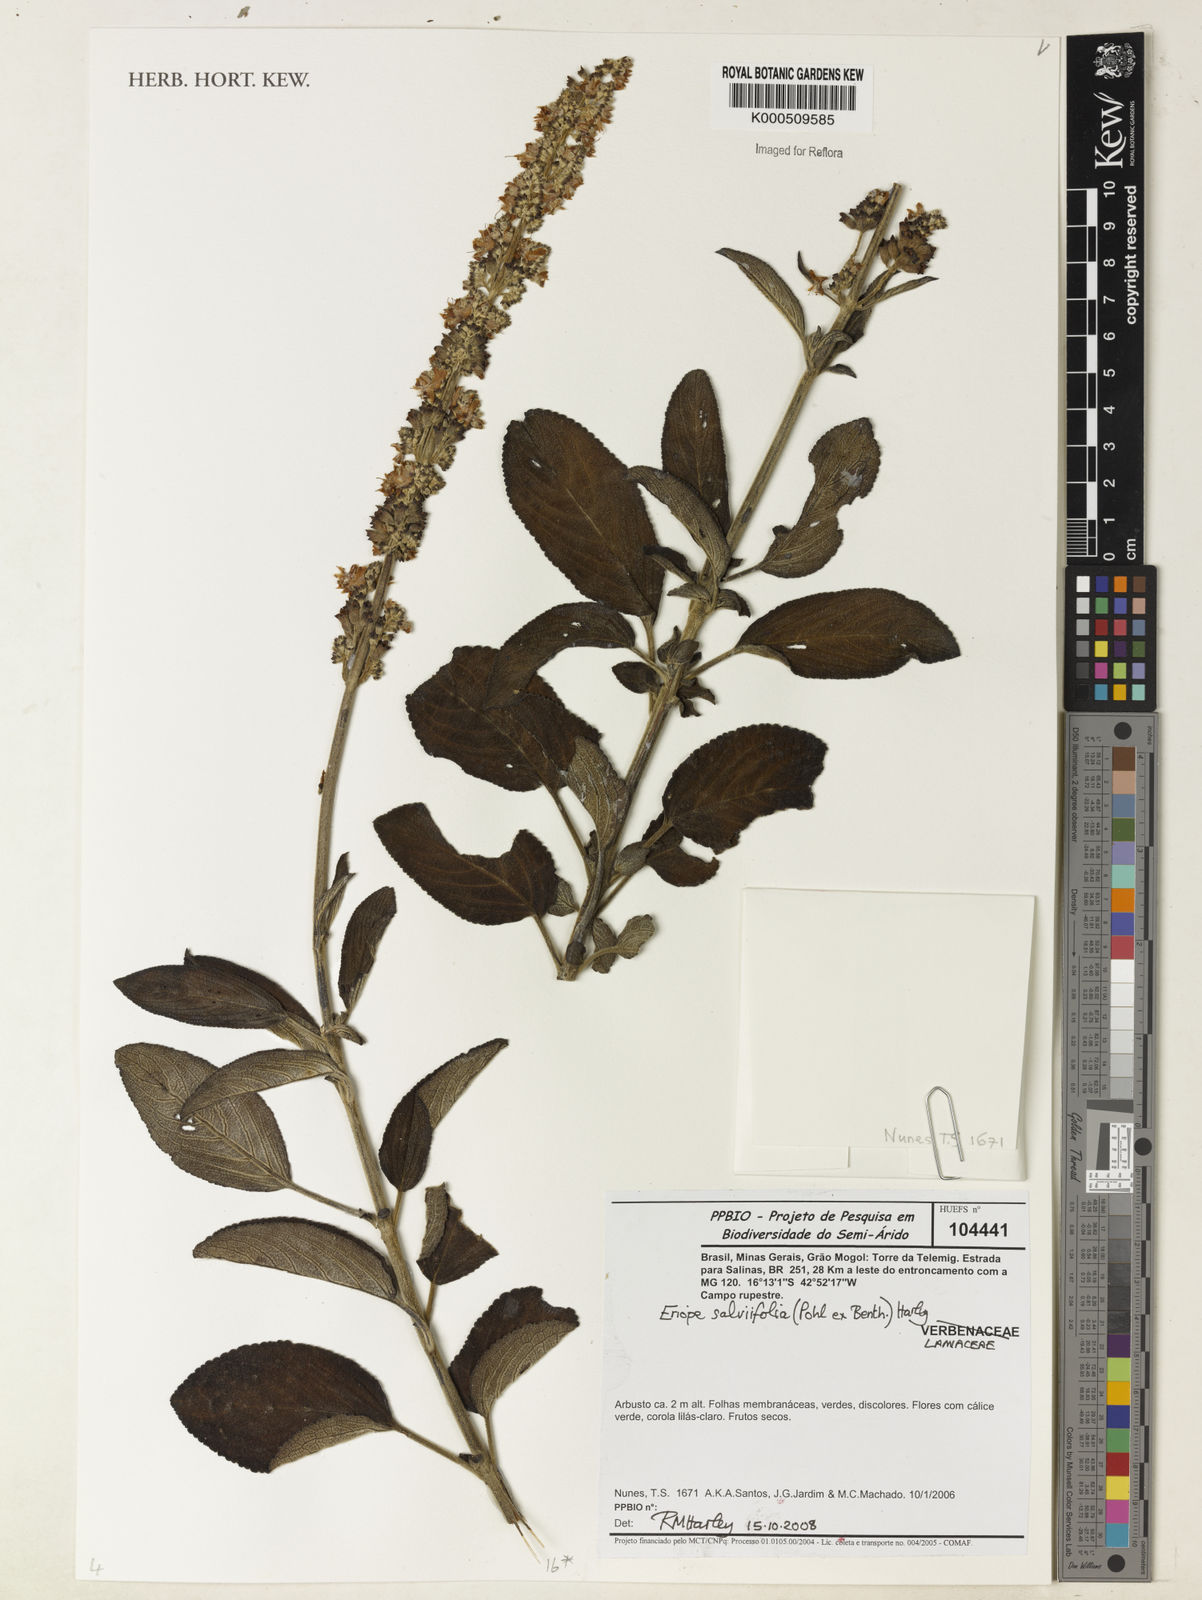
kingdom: Plantae
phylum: Tracheophyta
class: Magnoliopsida
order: Lamiales
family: Lamiaceae
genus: Eriope
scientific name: Eriope salviifolia
